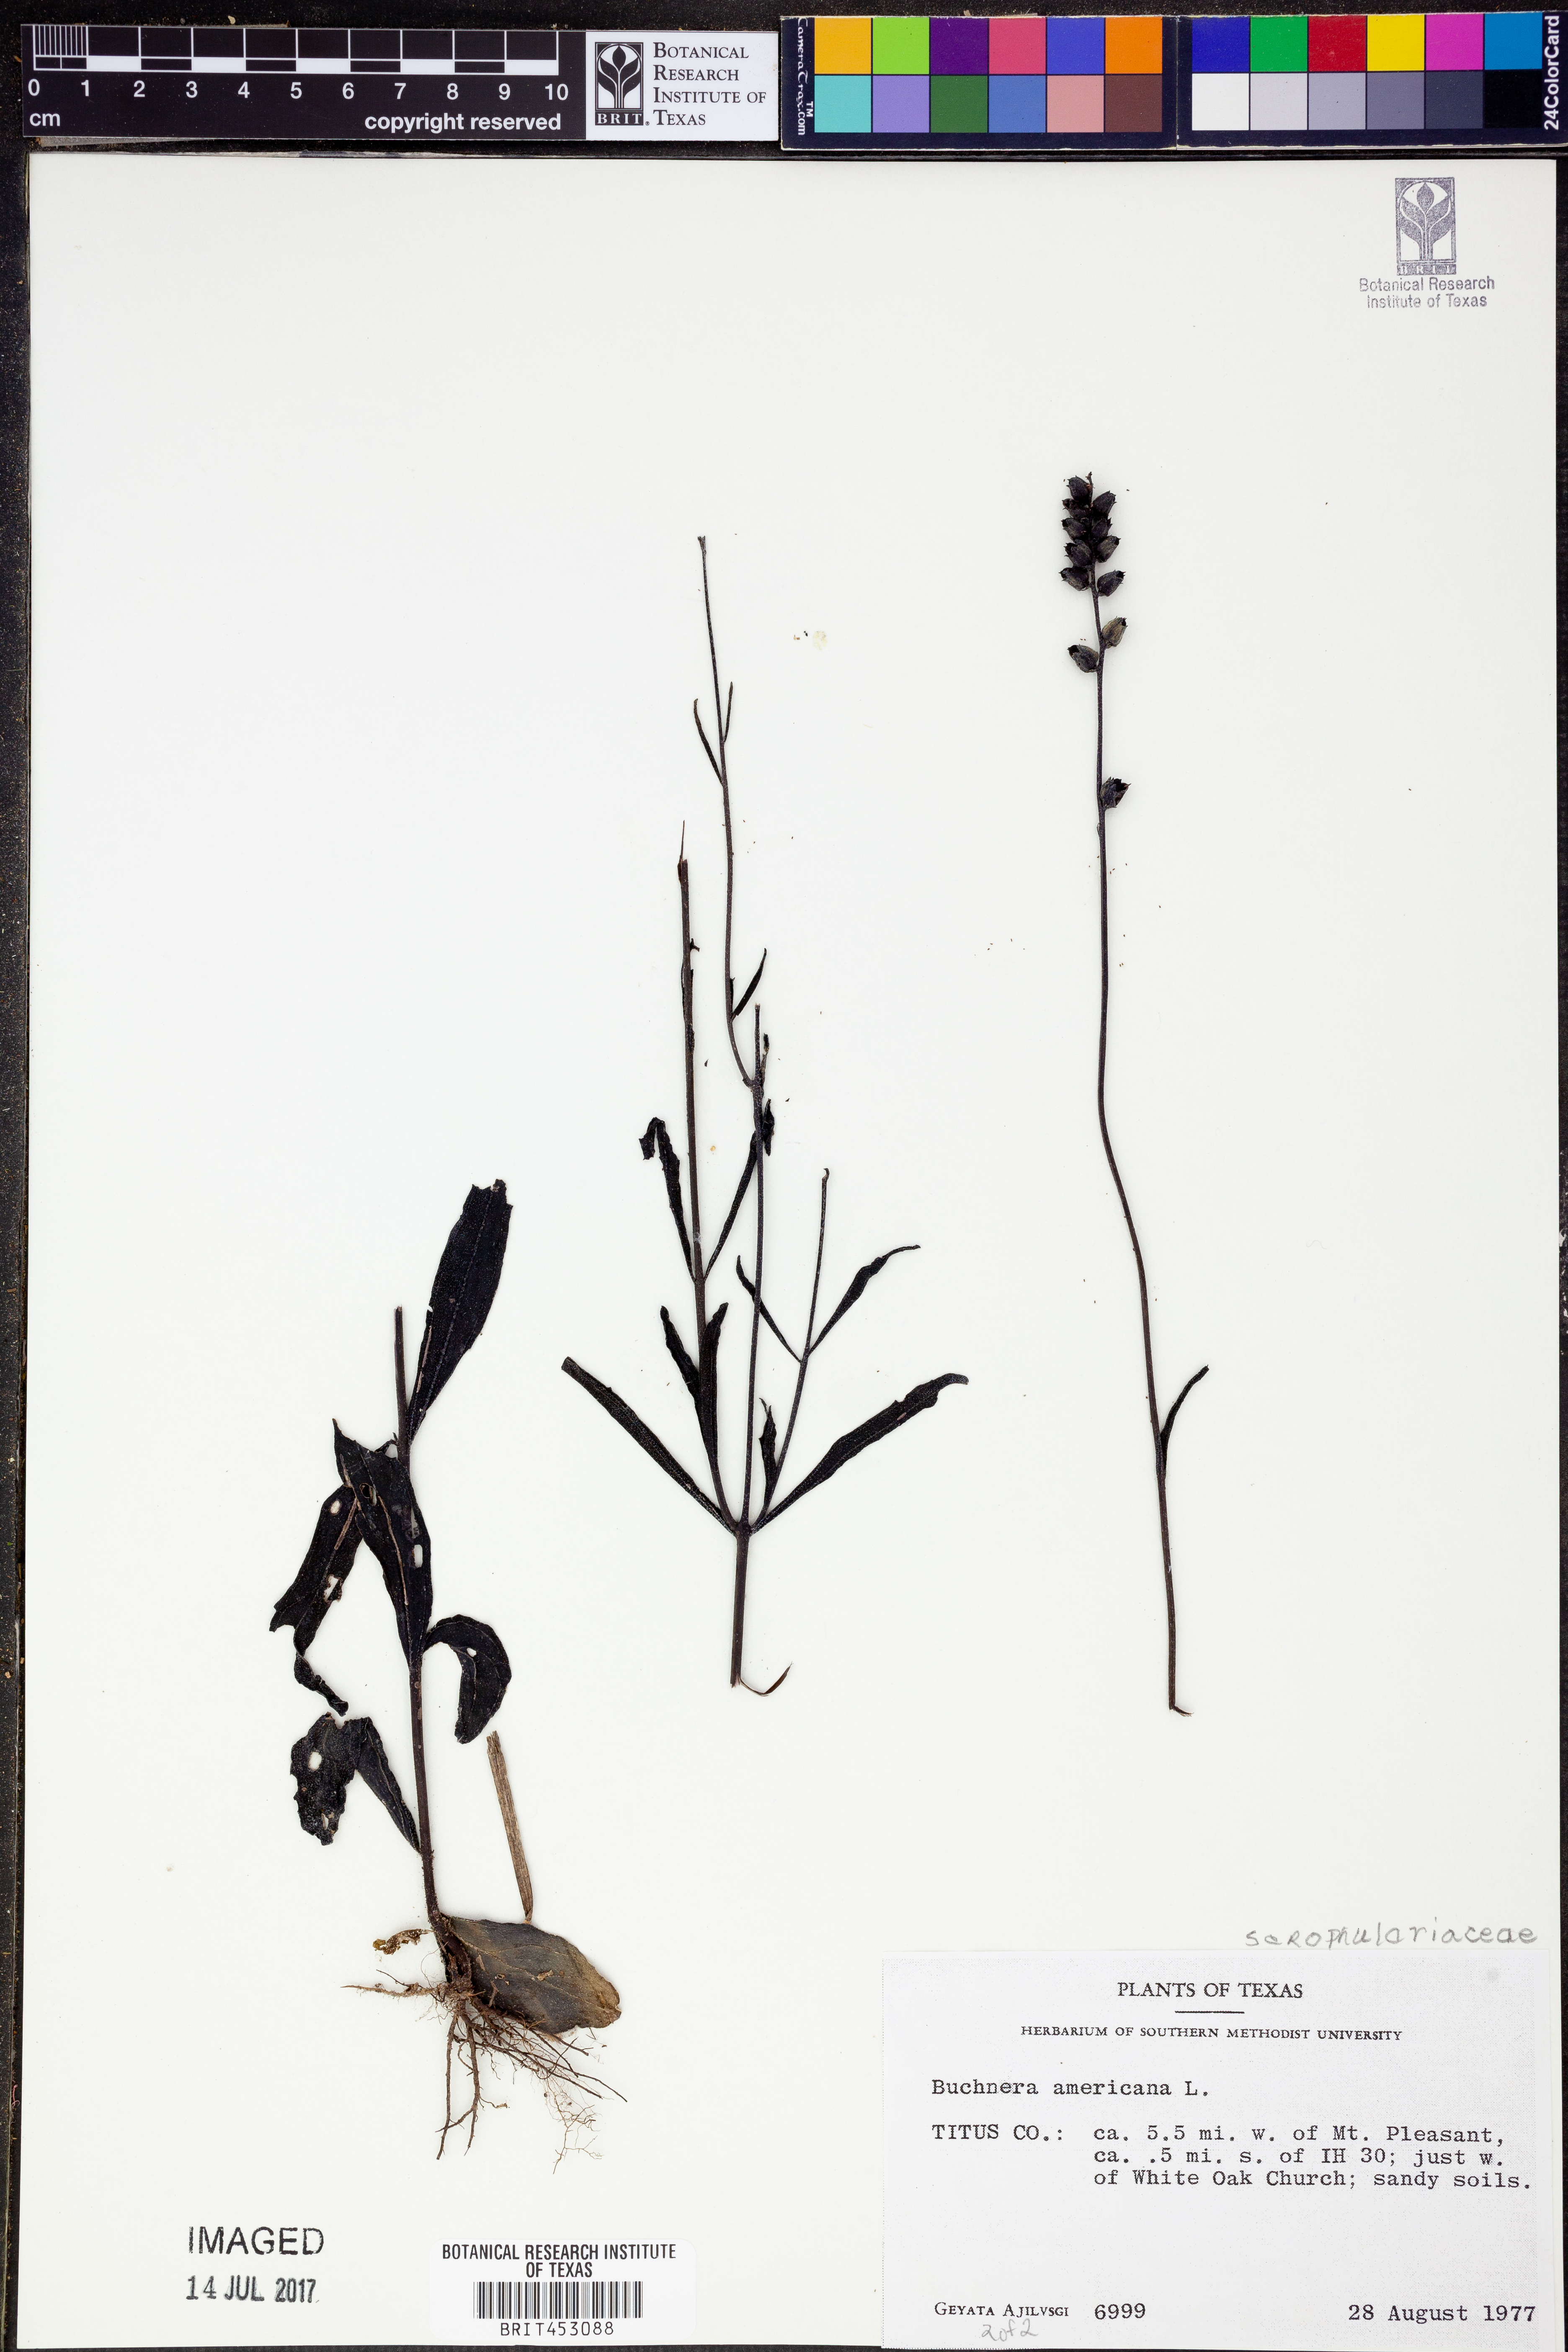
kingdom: Plantae
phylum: Tracheophyta
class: Magnoliopsida
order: Lamiales
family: Orobanchaceae
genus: Buchnera
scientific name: Buchnera americana
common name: American bluehearts
